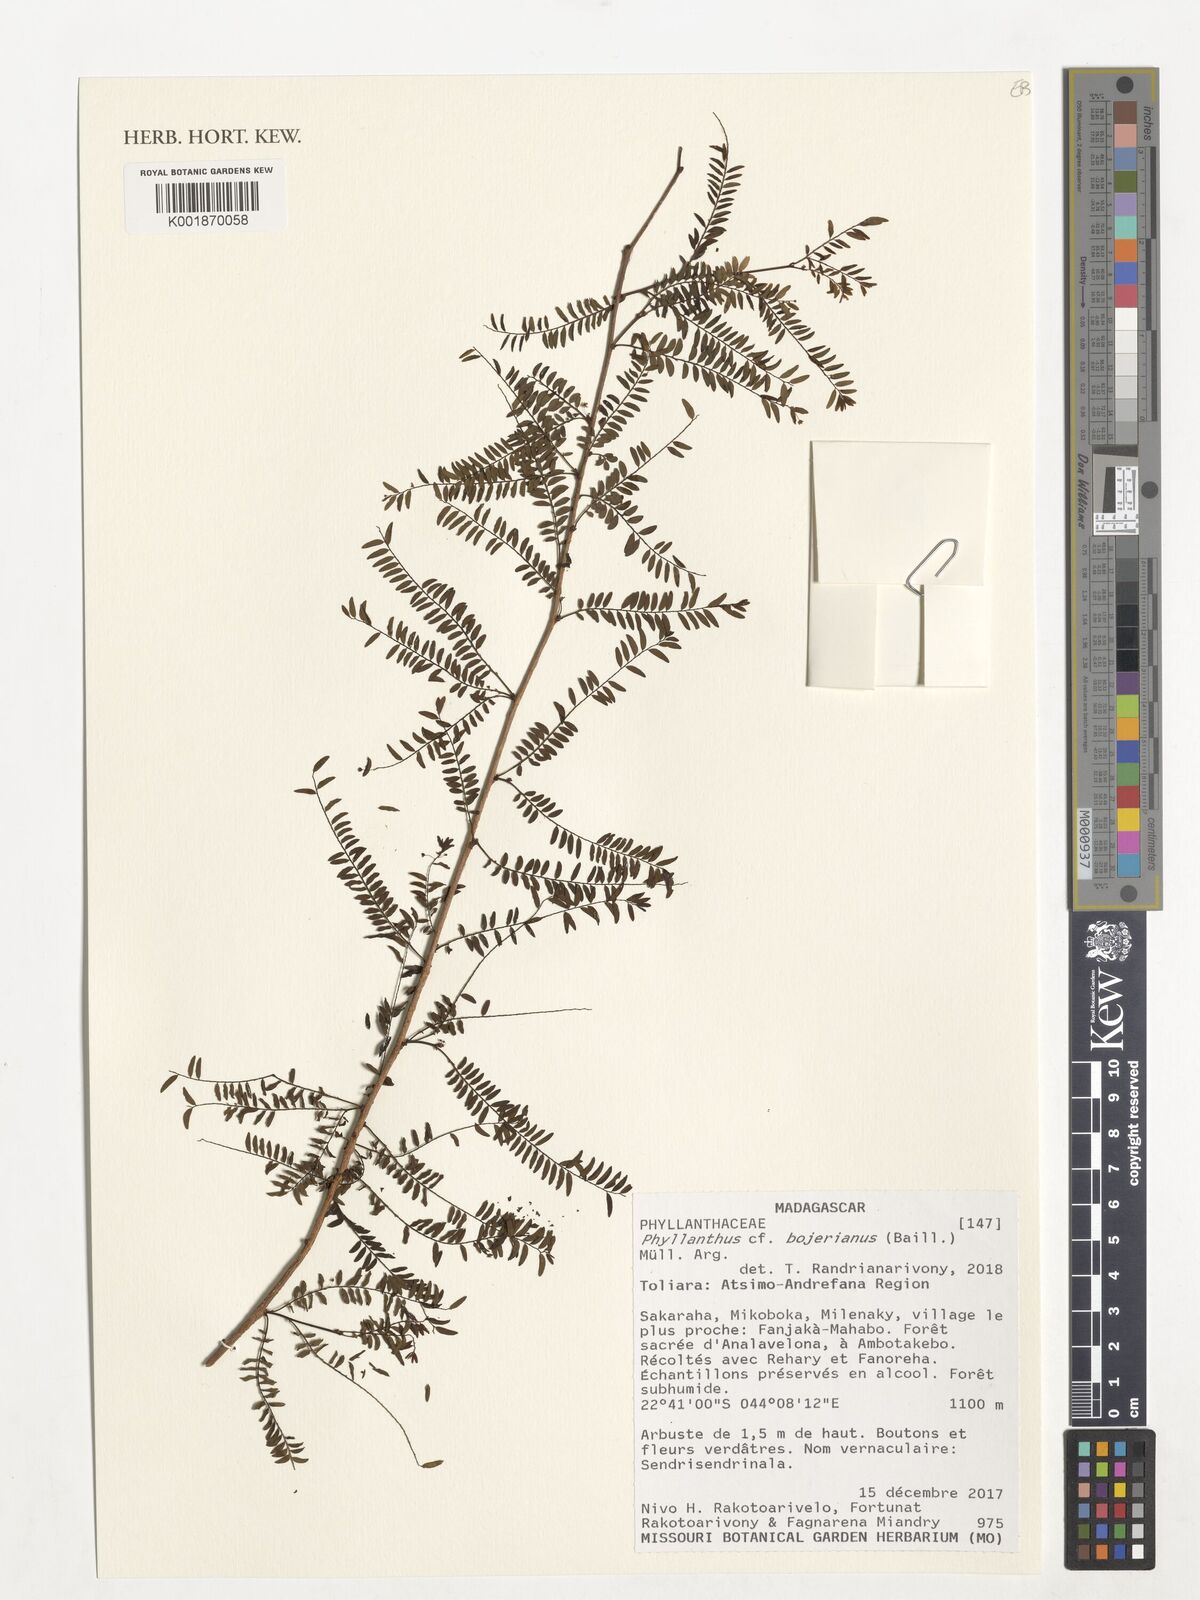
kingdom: Plantae
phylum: Tracheophyta
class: Magnoliopsida
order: Malpighiales
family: Phyllanthaceae
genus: Phyllanthus
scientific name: Phyllanthus bojerianus
